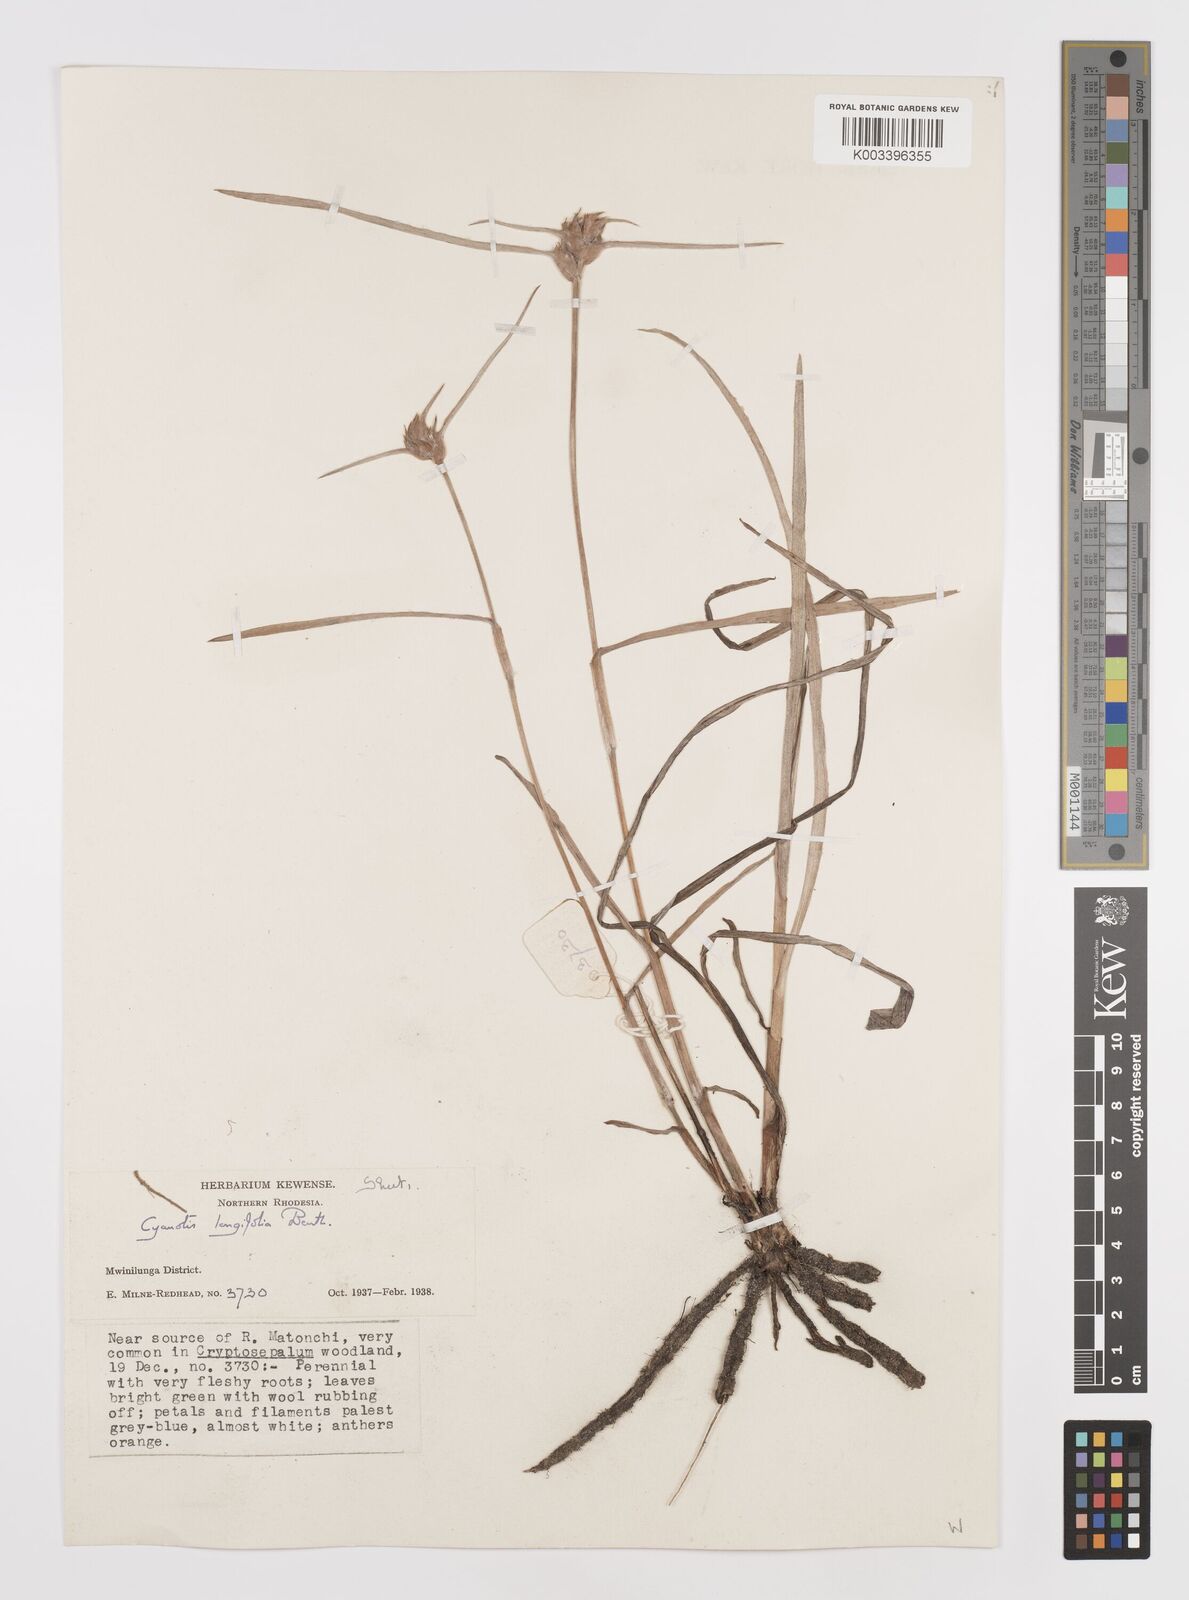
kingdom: Plantae
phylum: Tracheophyta
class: Liliopsida
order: Commelinales
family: Commelinaceae
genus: Cyanotis
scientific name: Cyanotis longifolia
